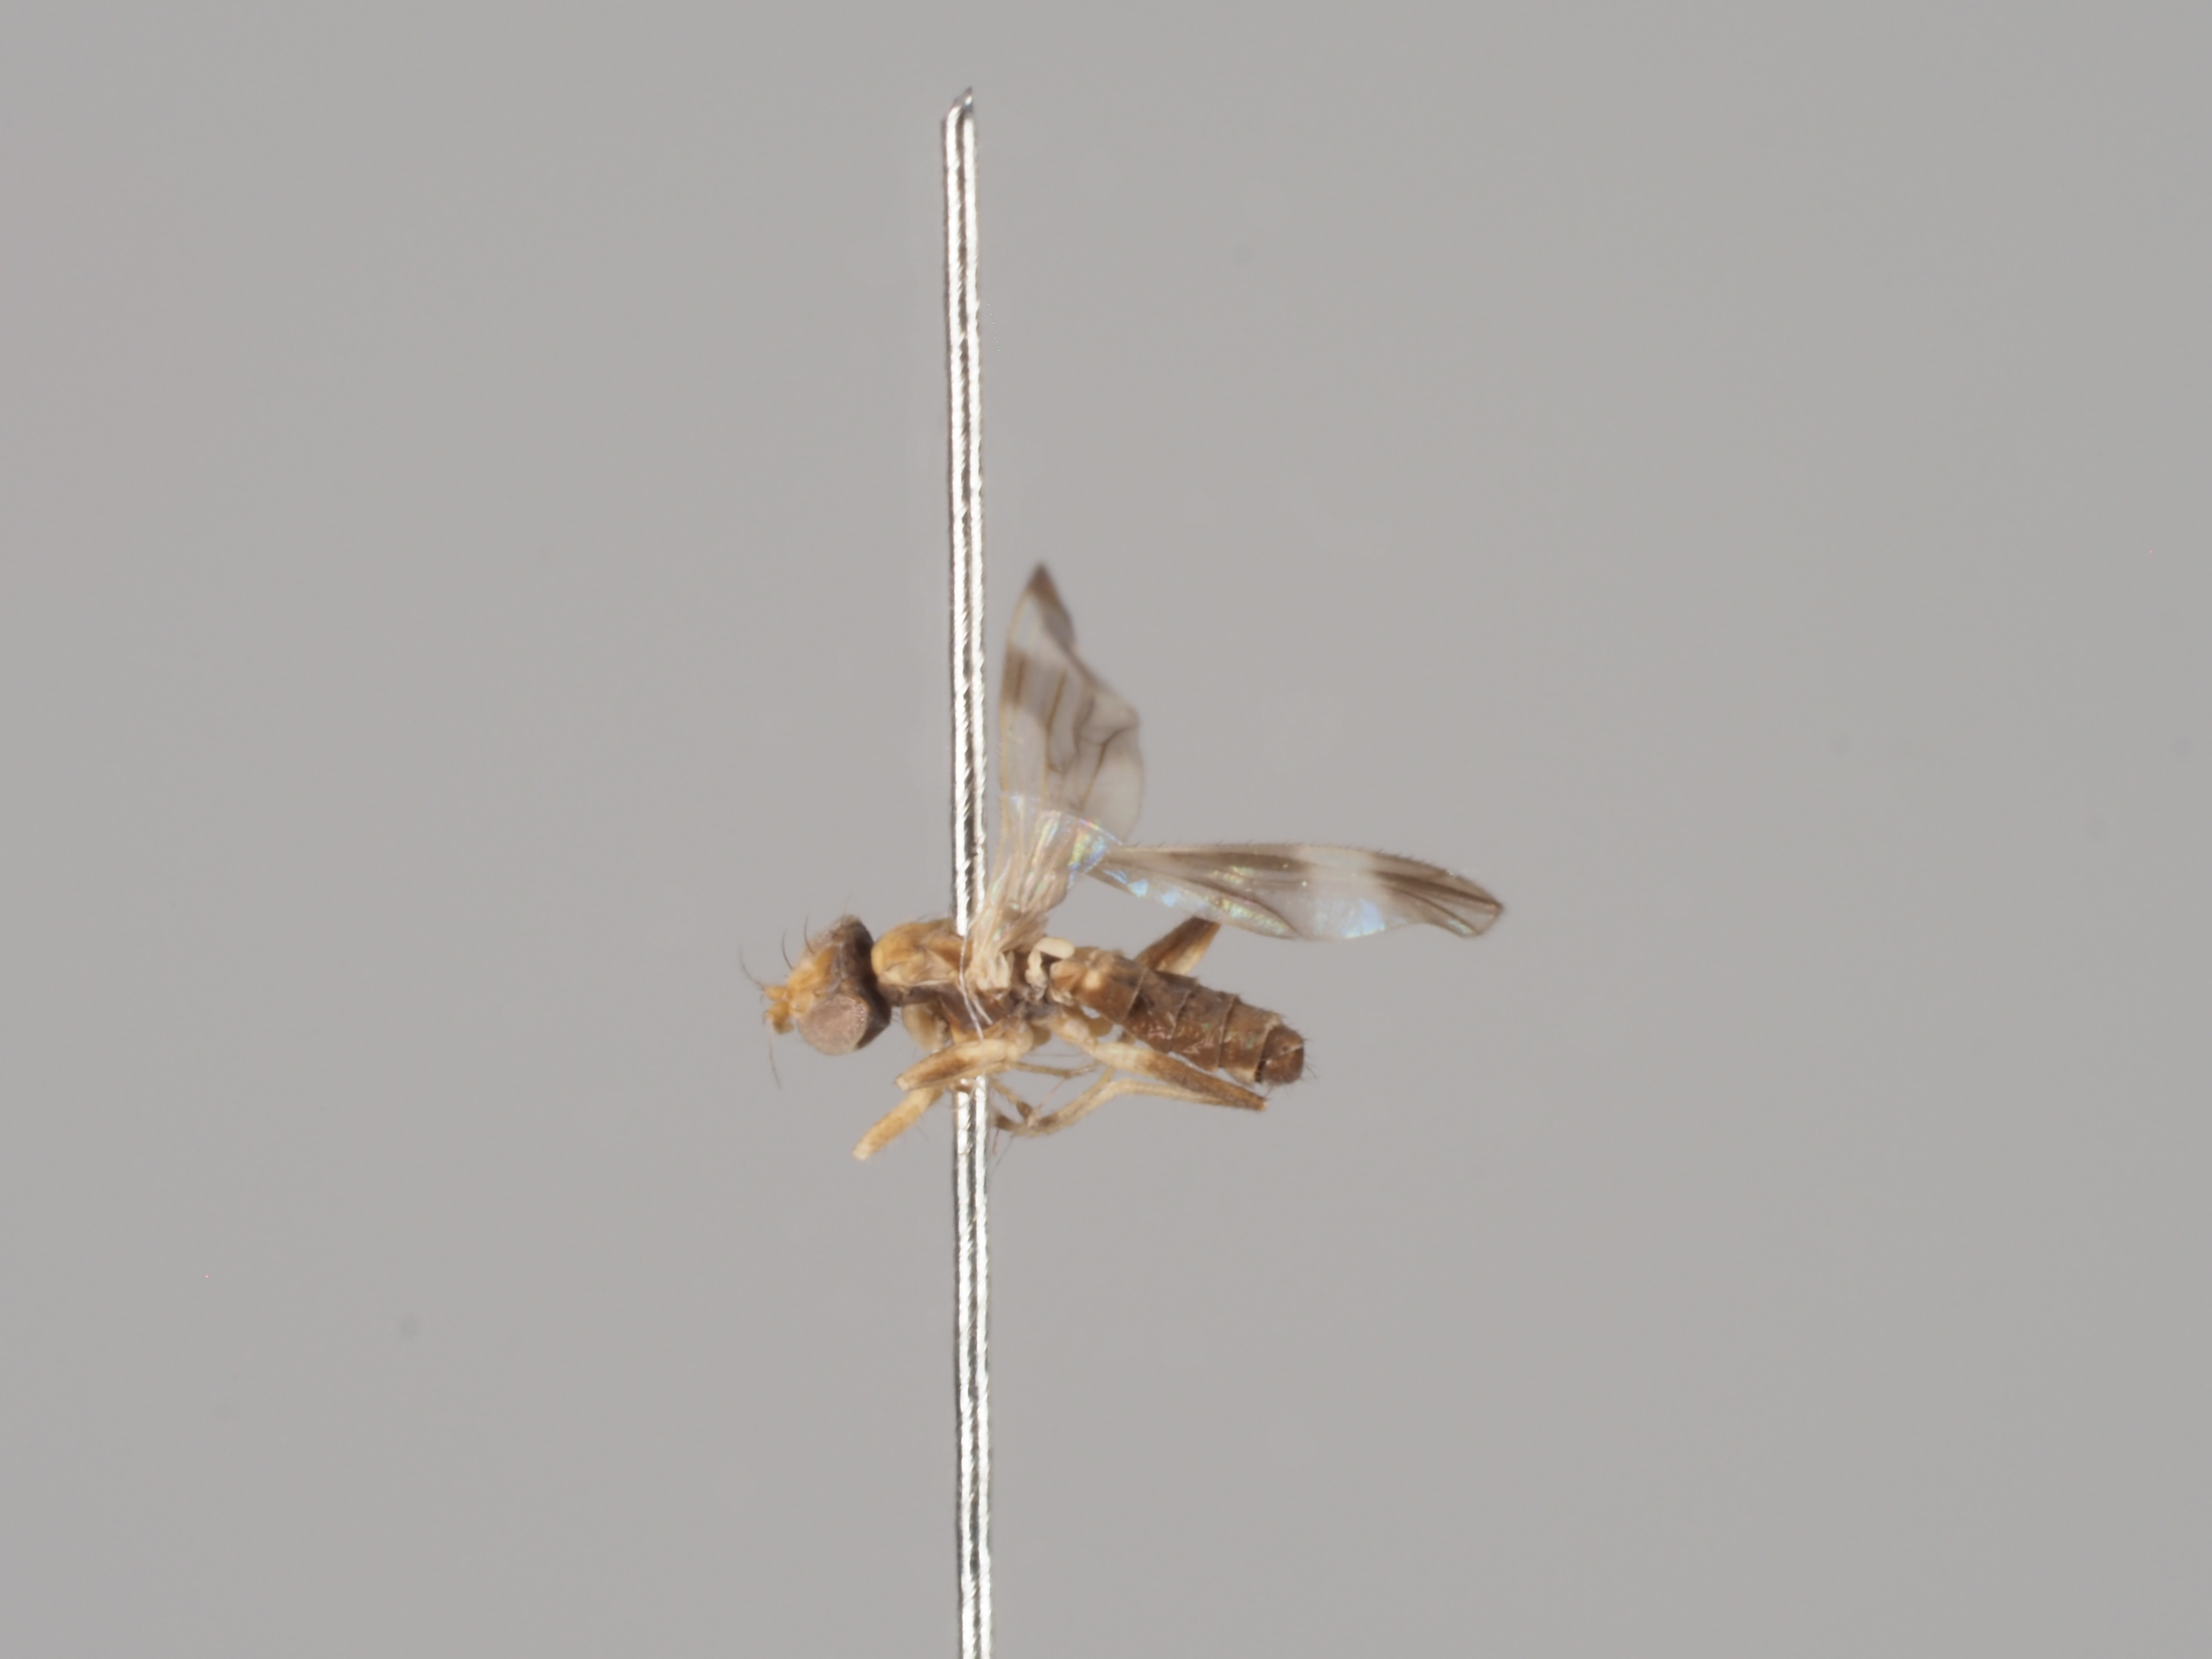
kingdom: Animalia
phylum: Arthropoda
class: Insecta
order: Diptera
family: Anthomyzidae
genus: Typhamyza
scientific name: Typhamyza bifasciata
